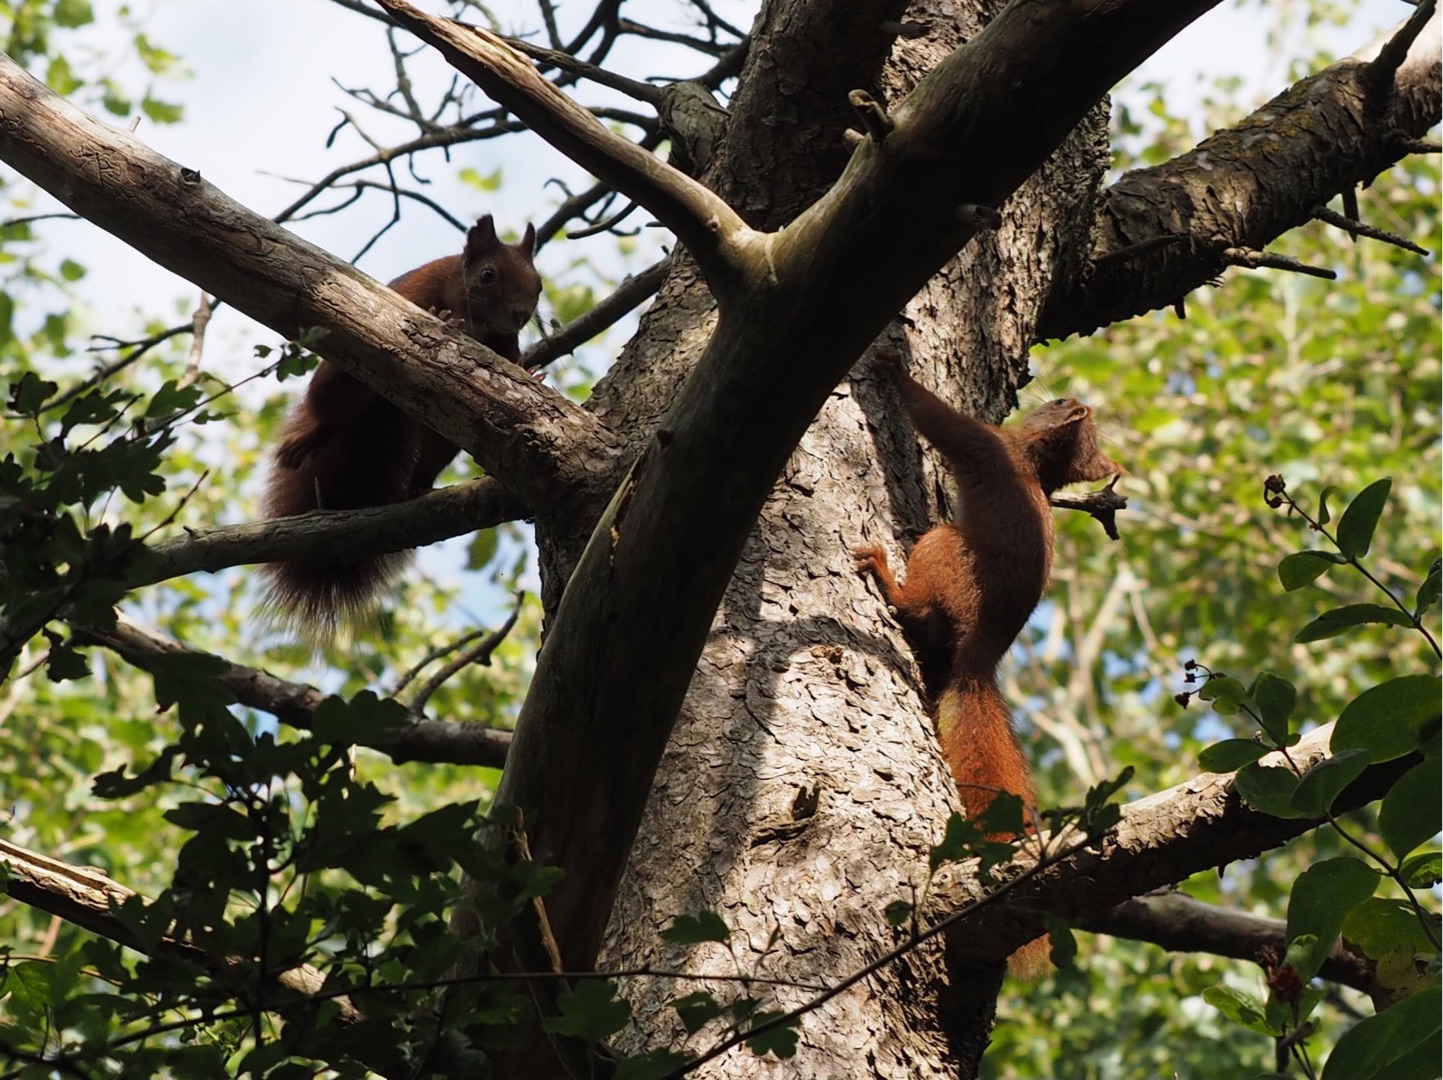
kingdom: Animalia
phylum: Chordata
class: Mammalia
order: Rodentia
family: Sciuridae
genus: Sciurus
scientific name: Sciurus vulgaris
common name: Egern
